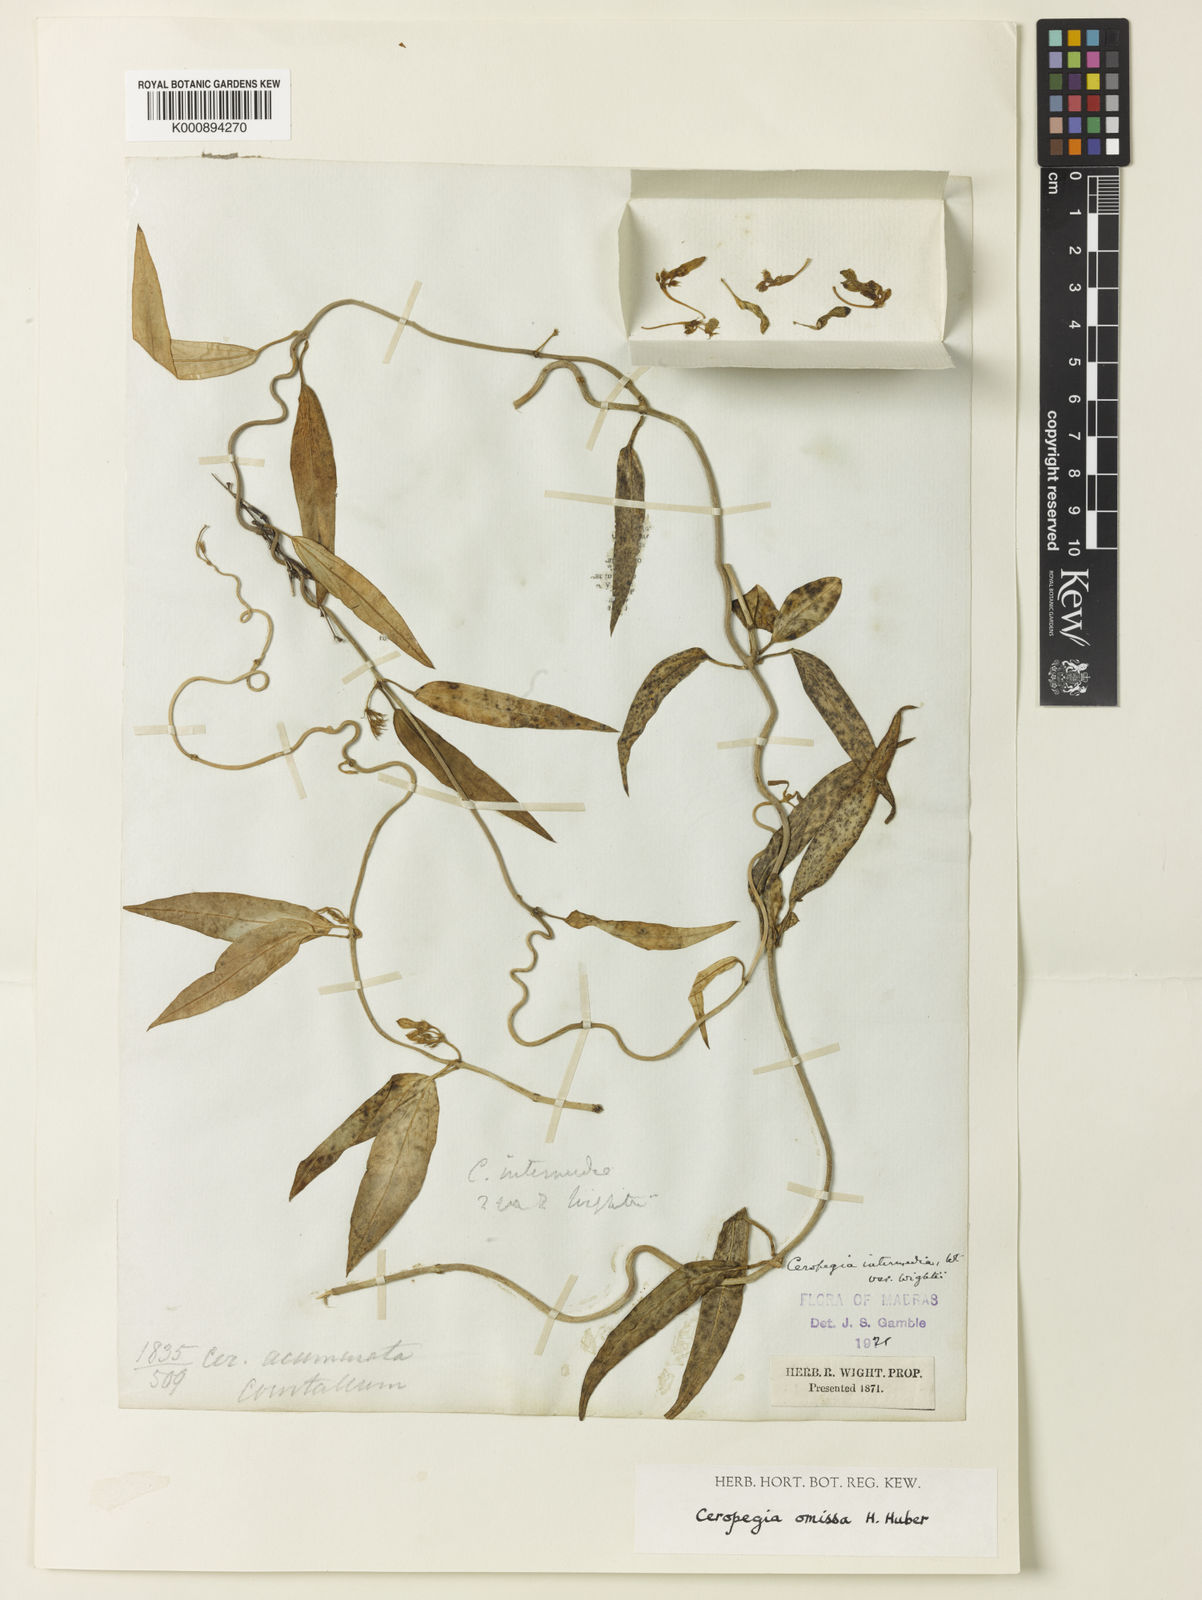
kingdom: Plantae
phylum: Tracheophyta
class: Magnoliopsida
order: Gentianales
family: Apocynaceae
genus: Ceropegia
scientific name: Ceropegia omissa
